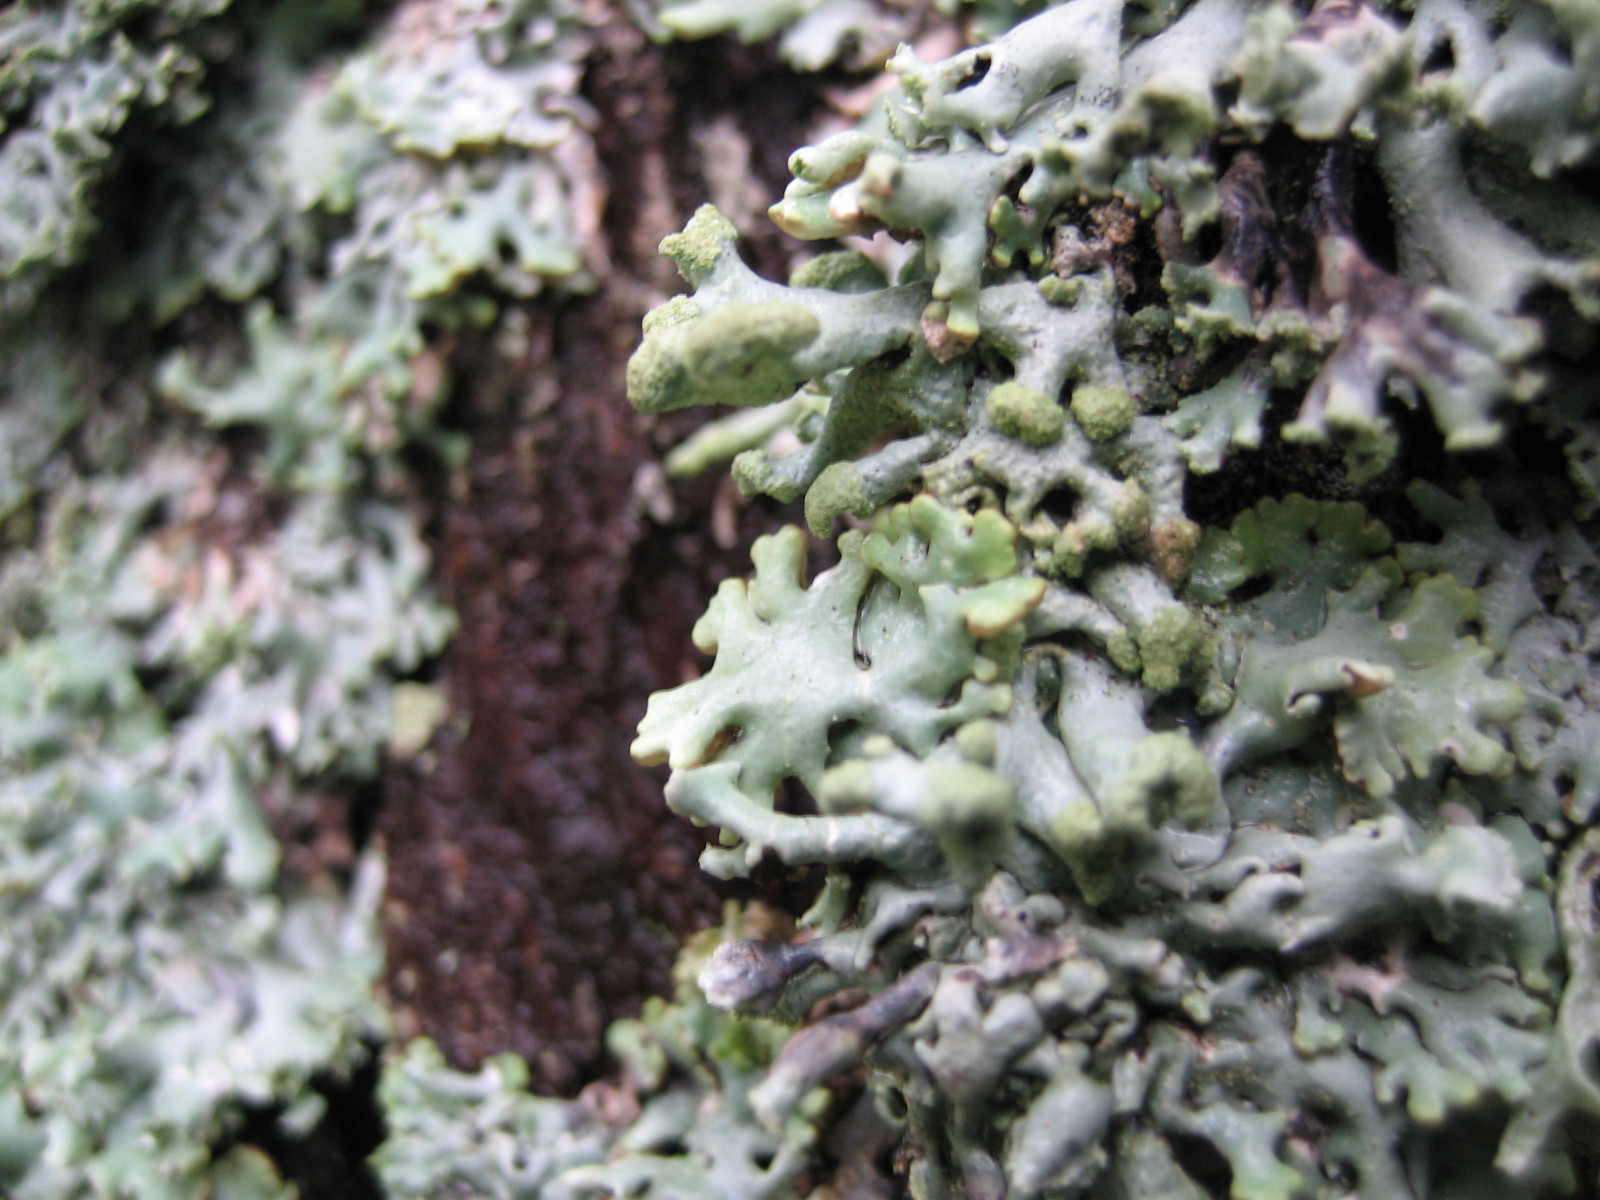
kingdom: Fungi
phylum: Ascomycota
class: Lecanoromycetes
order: Lecanorales
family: Parmeliaceae
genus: Hypogymnia
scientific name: Hypogymnia tubulosa
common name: finger-kvistlav
